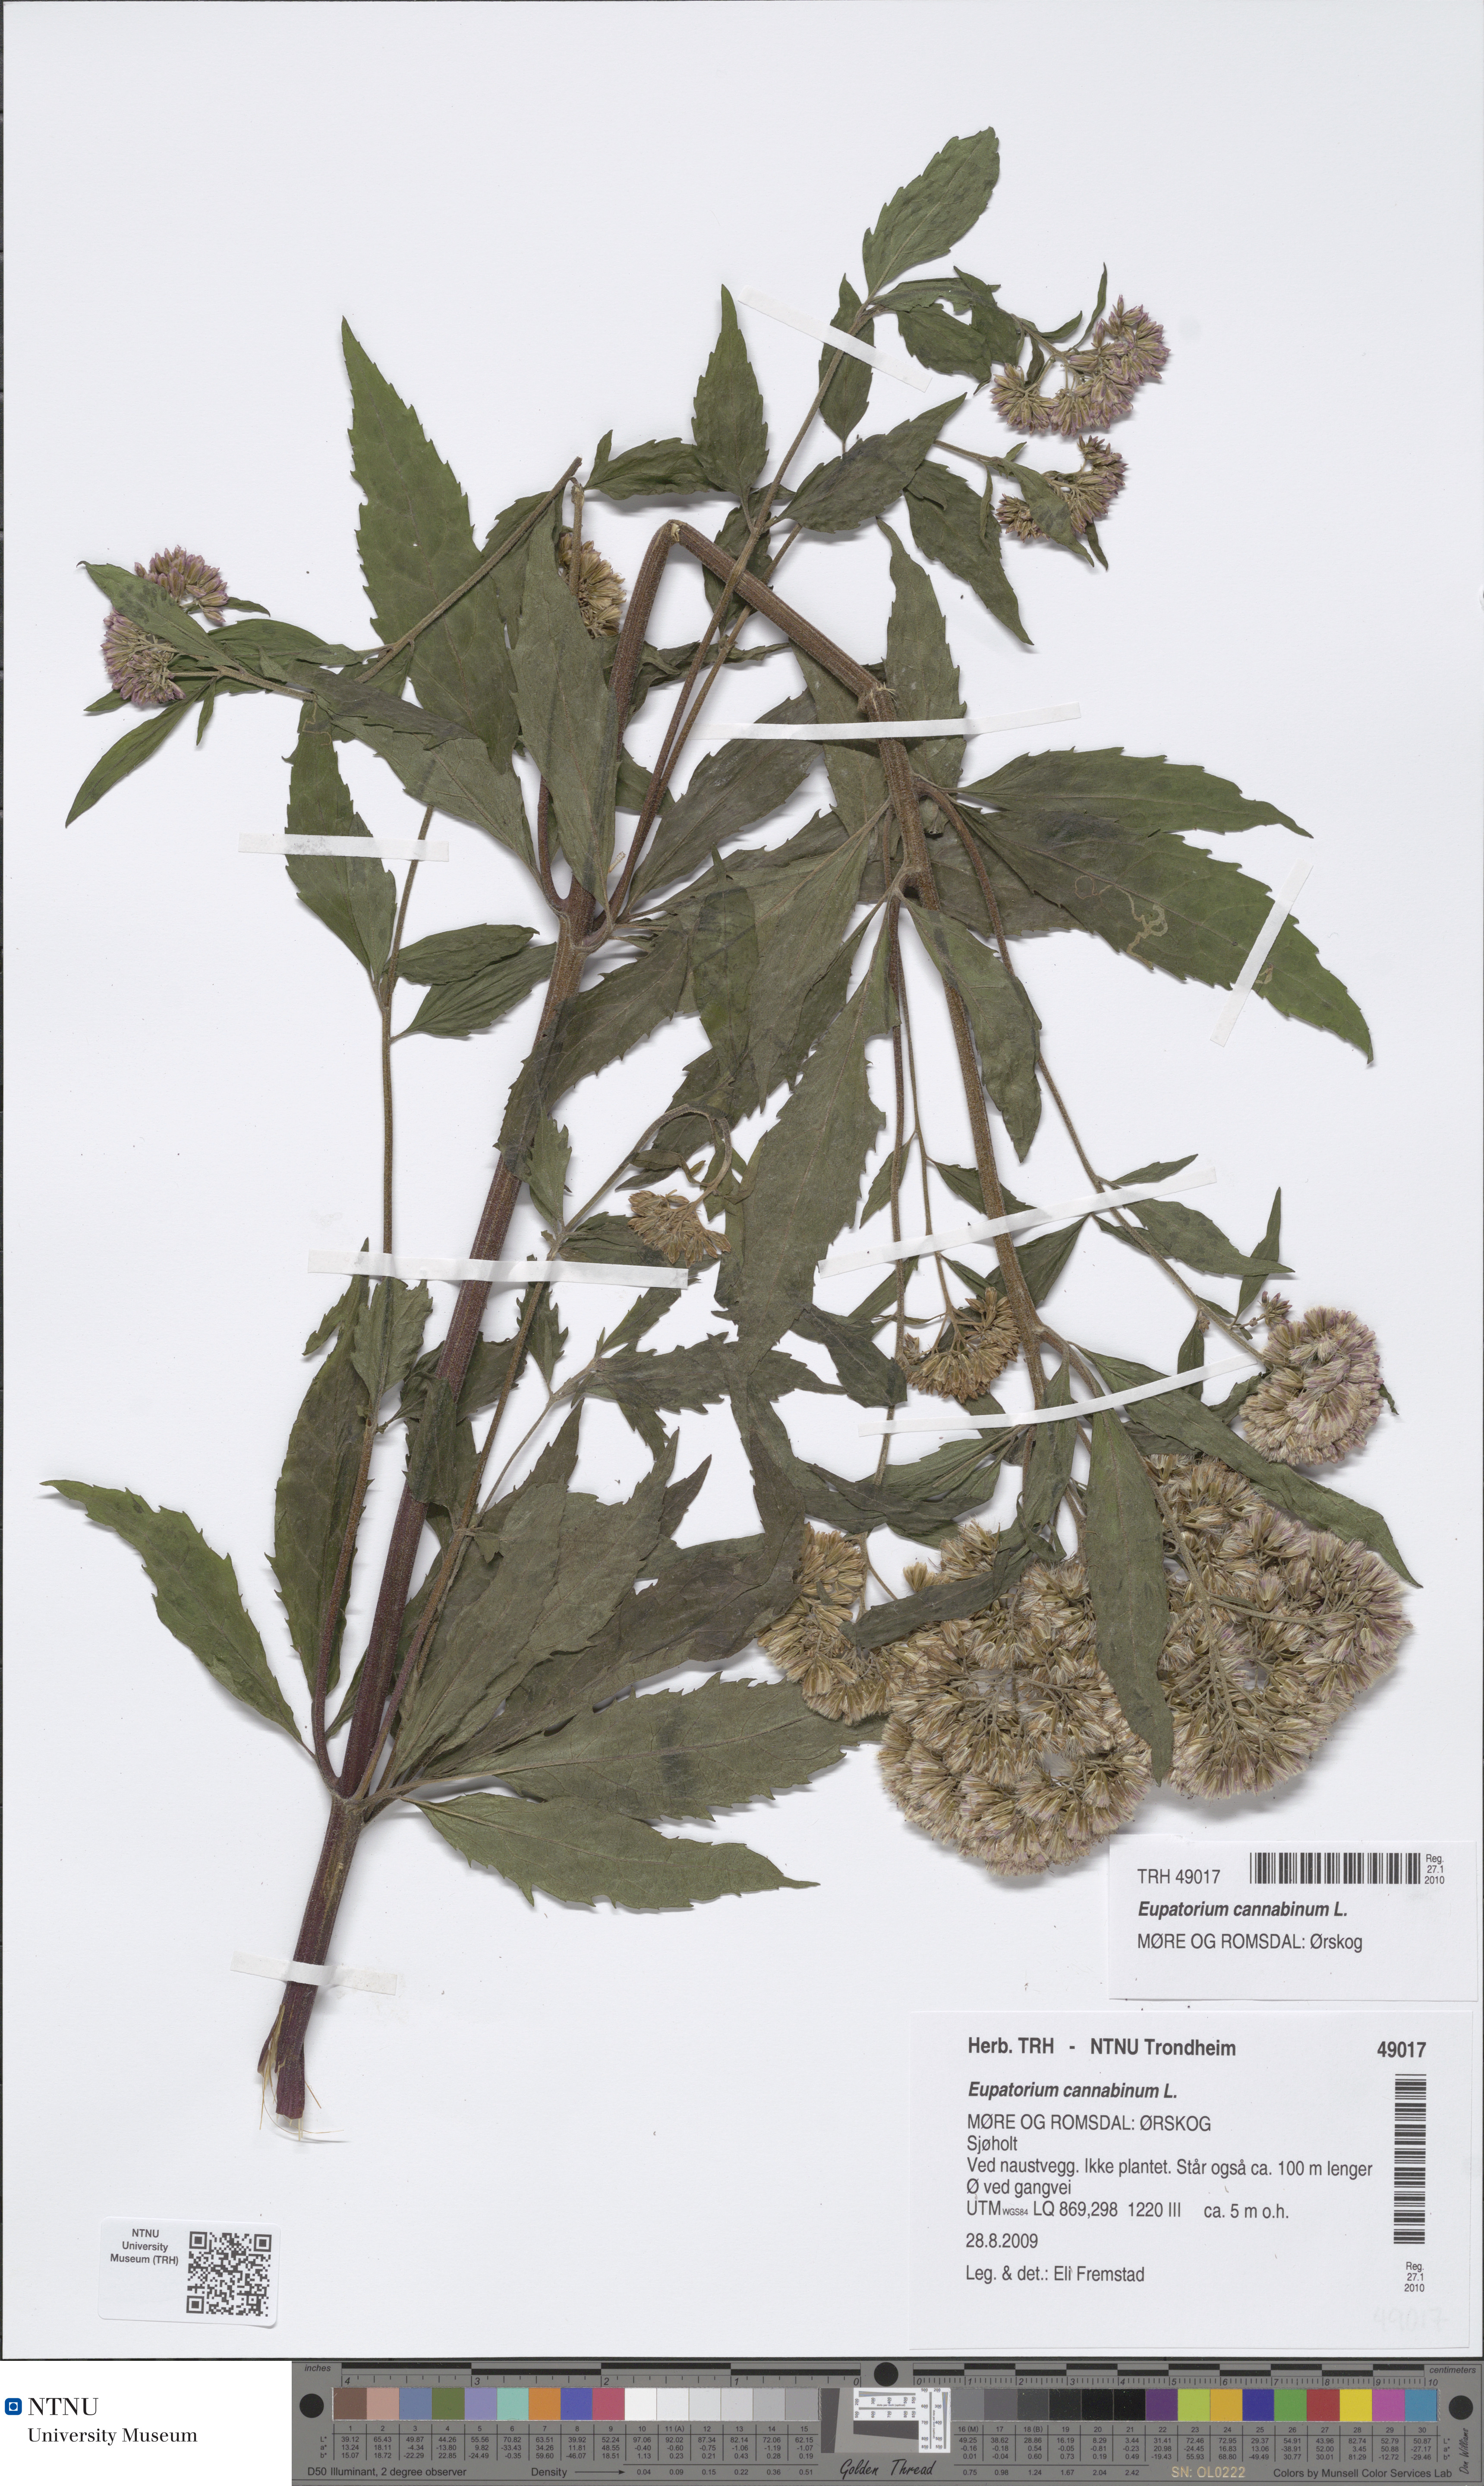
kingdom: Plantae
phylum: Tracheophyta
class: Magnoliopsida
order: Asterales
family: Asteraceae
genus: Eupatorium
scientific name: Eupatorium cannabinum
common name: Hemp-agrimony
